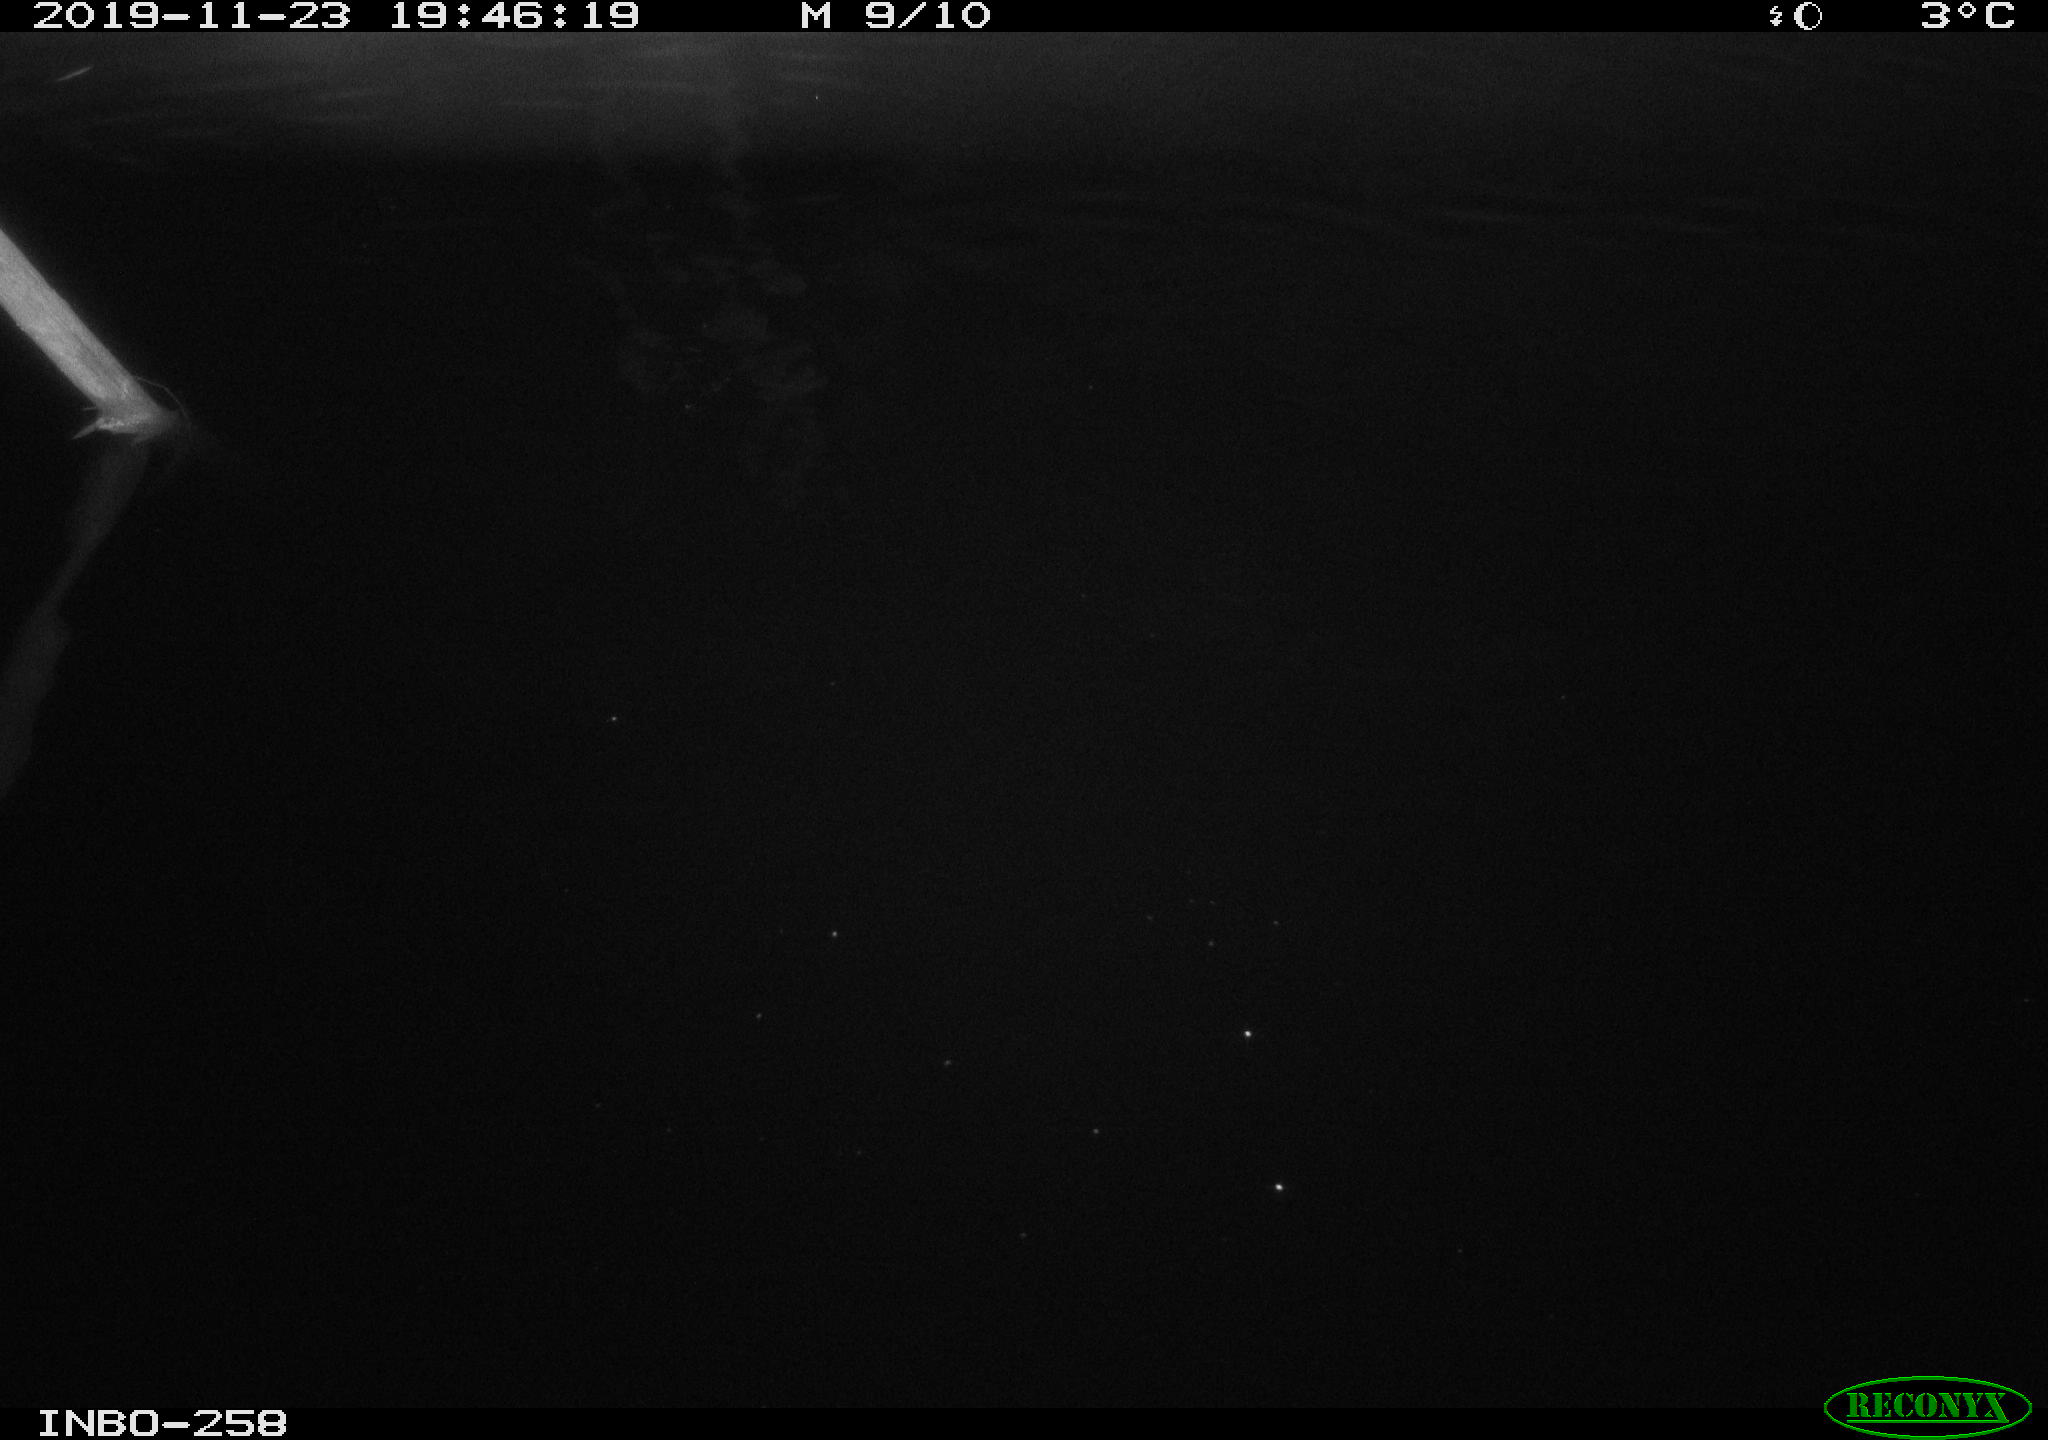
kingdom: Animalia
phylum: Chordata
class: Aves
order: Anseriformes
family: Anatidae
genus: Anas
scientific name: Anas platyrhynchos
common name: Mallard
